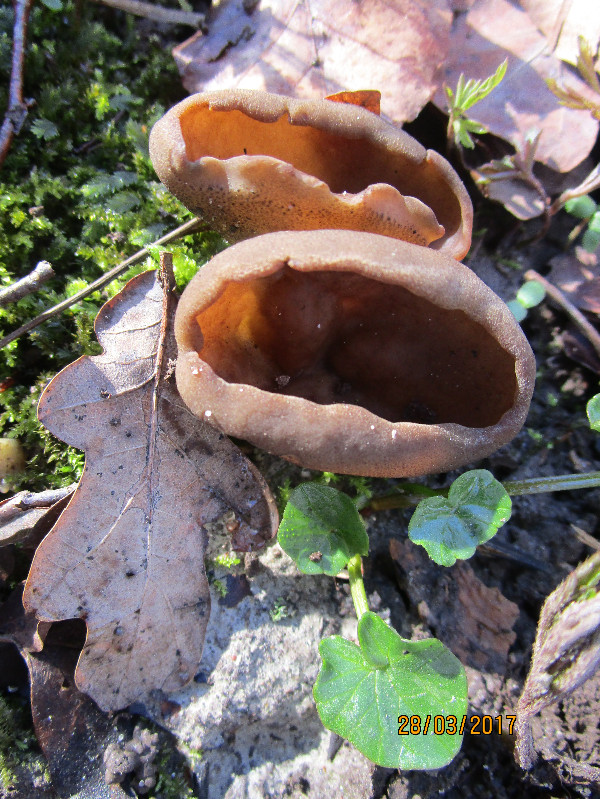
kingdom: Fungi
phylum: Ascomycota
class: Pezizomycetes
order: Pezizales
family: Morchellaceae
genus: Disciotis
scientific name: Disciotis venosa
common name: klor-bægermorkel
